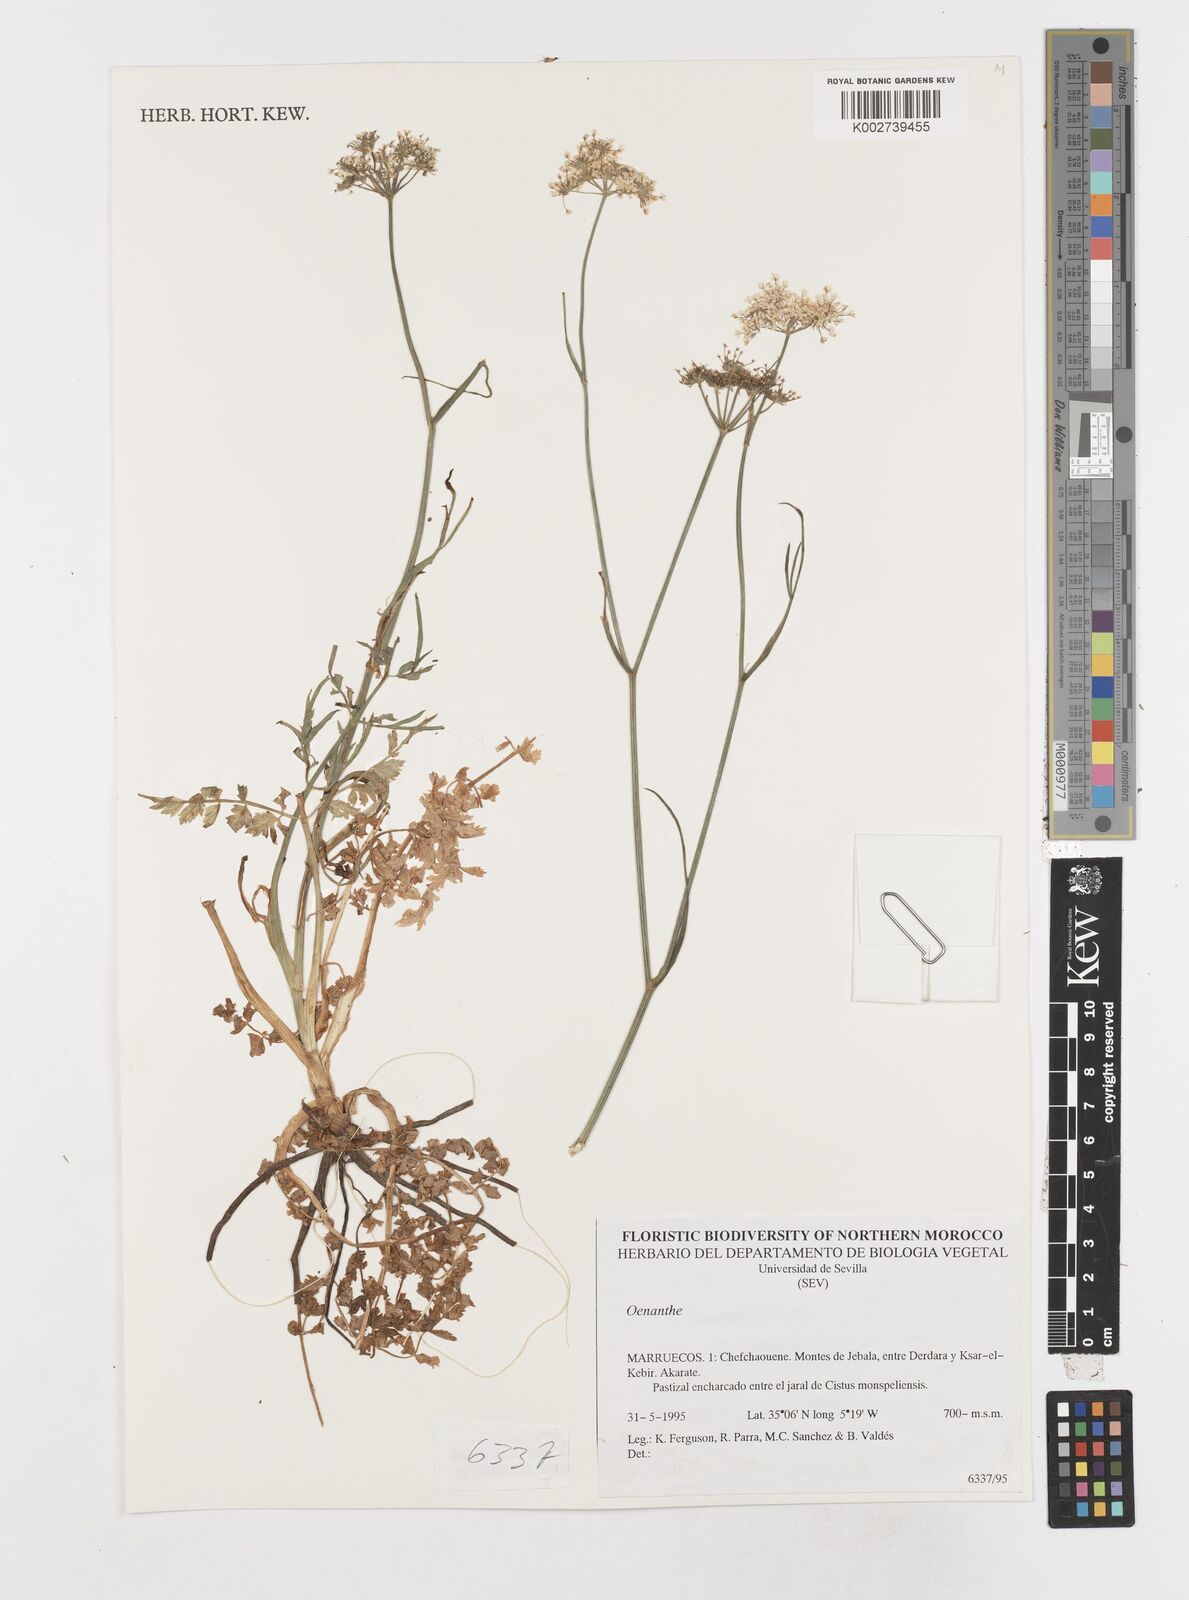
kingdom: Plantae
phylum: Tracheophyta
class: Magnoliopsida
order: Apiales
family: Apiaceae
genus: Oenanthe
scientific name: Oenanthe crocata
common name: Hemlock water-dropwort
